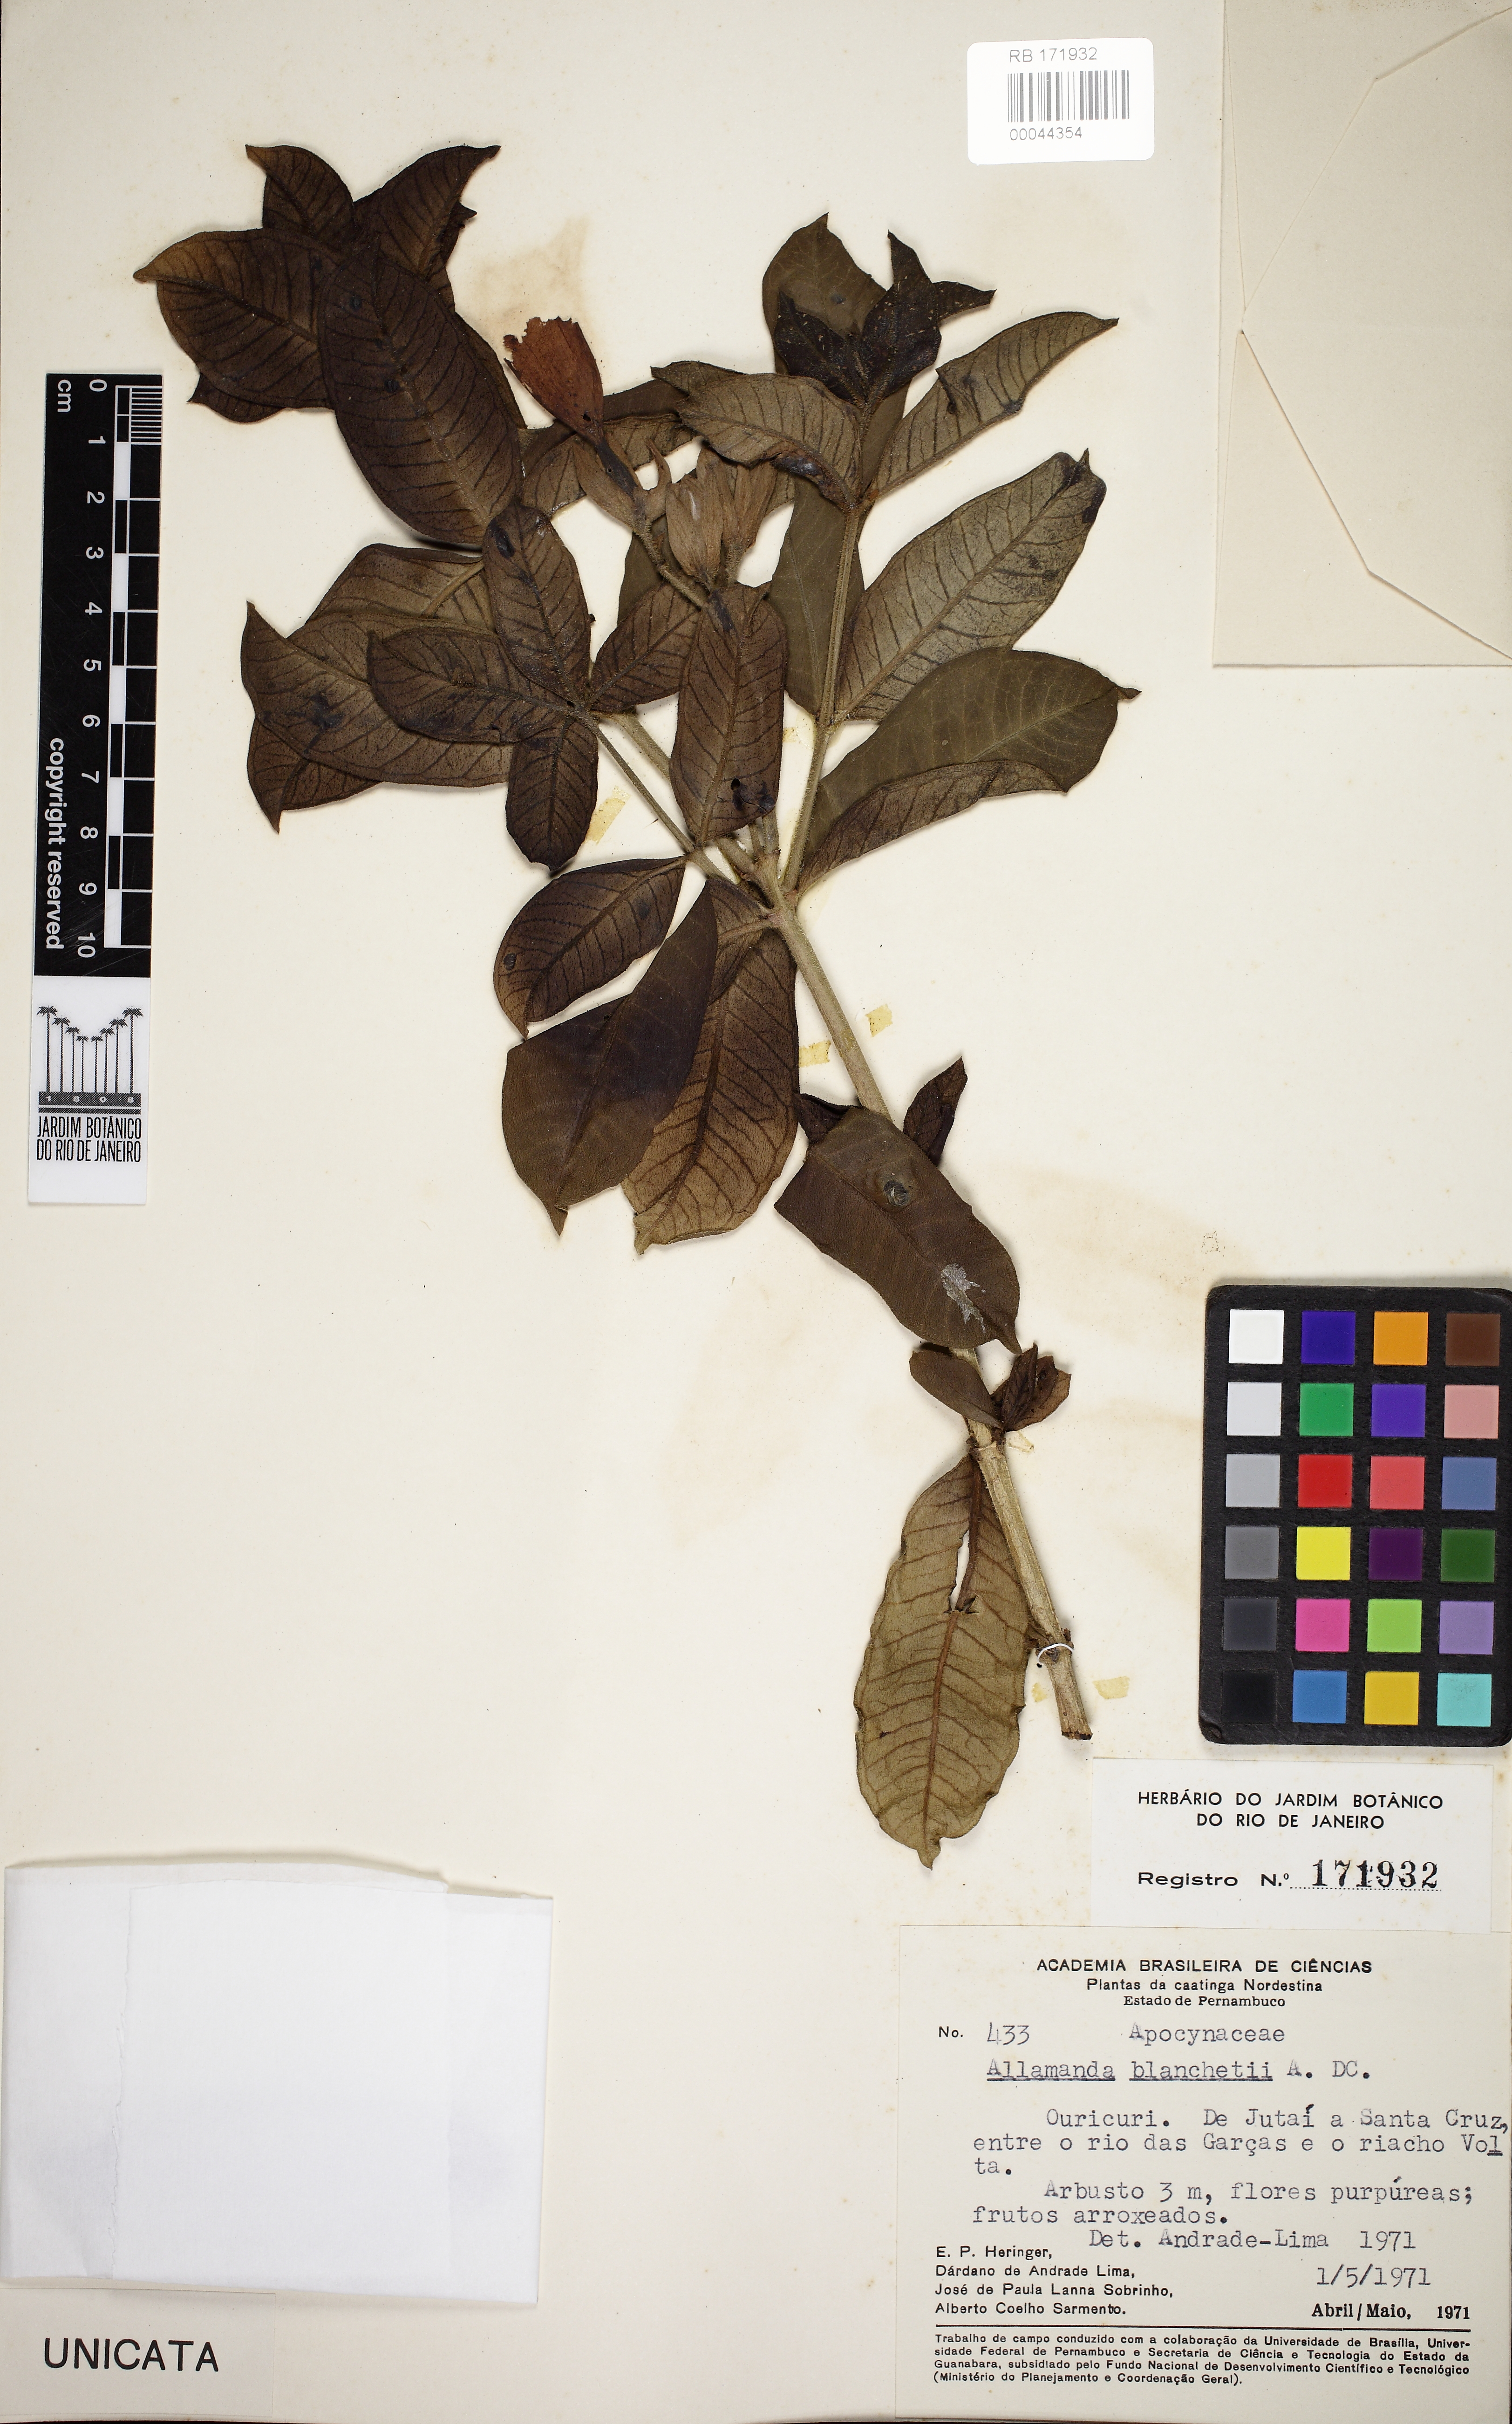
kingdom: Plantae
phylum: Tracheophyta
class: Magnoliopsida
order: Gentianales
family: Apocynaceae
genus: Allamanda
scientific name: Allamanda blanchetii
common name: Purple allamanda
